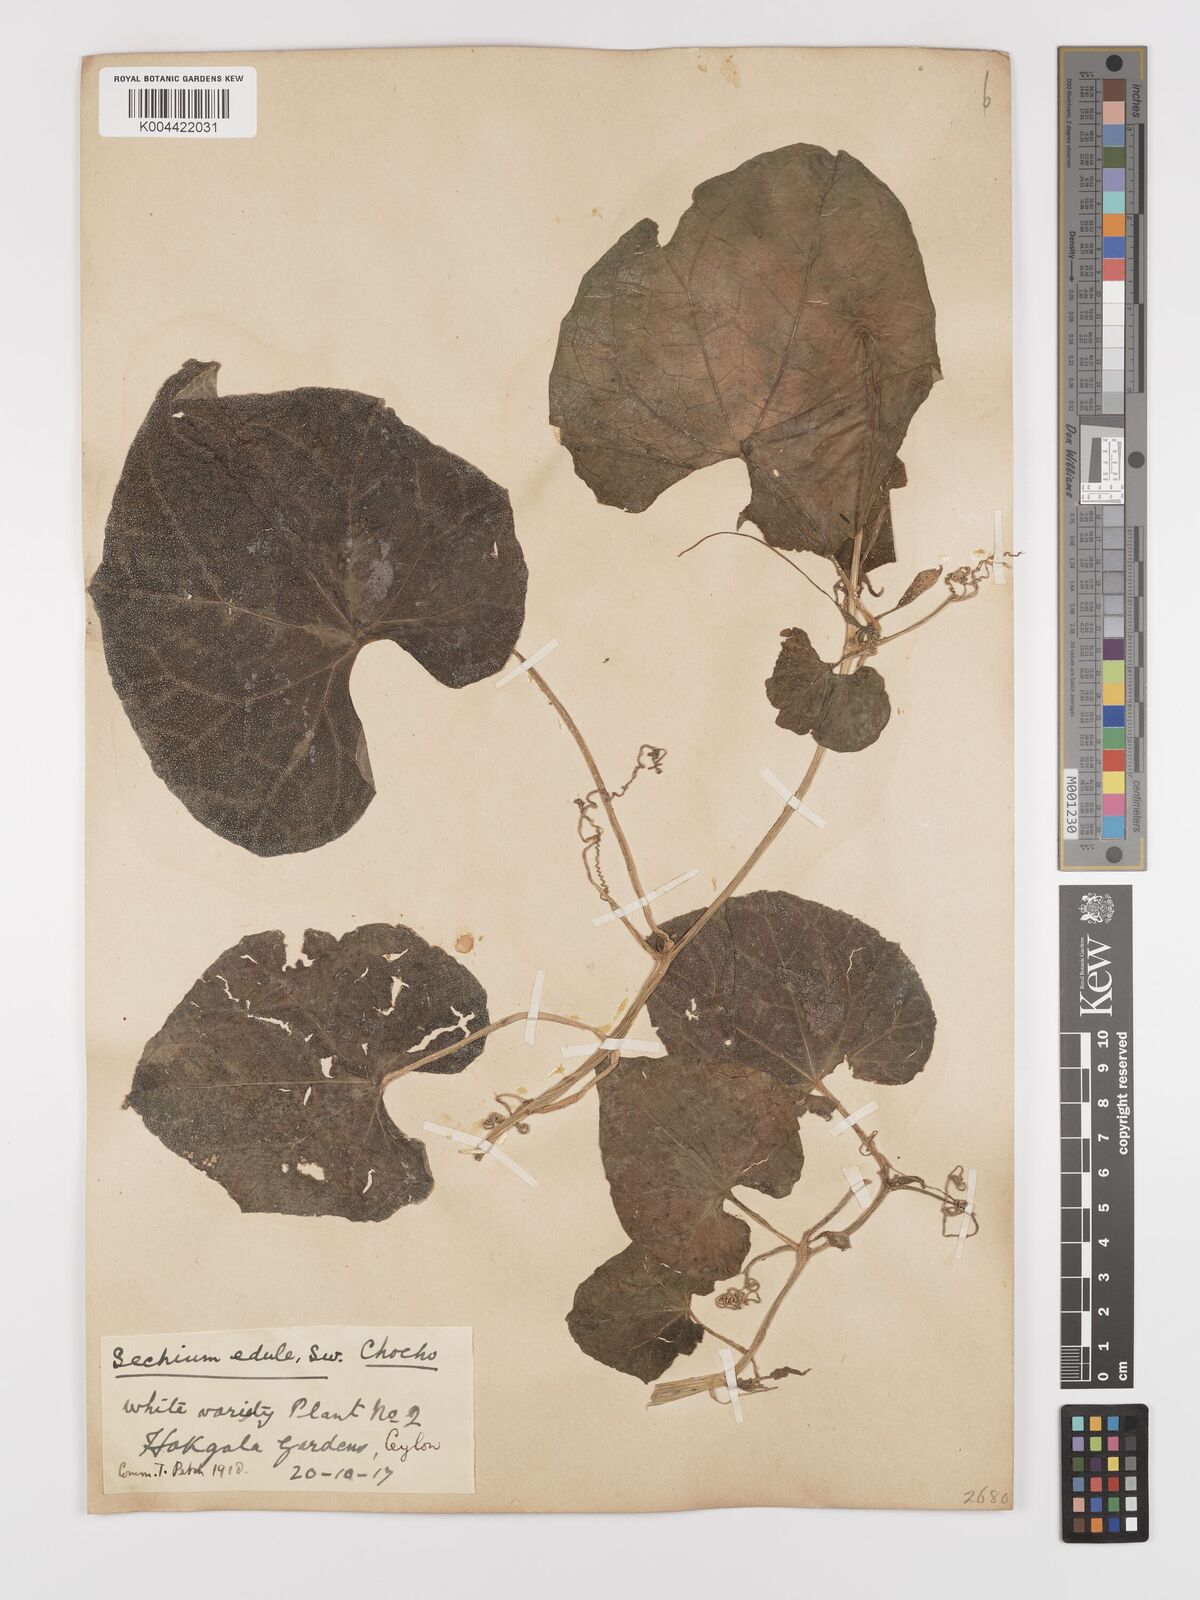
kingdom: Plantae
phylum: Tracheophyta
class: Magnoliopsida
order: Cucurbitales
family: Cucurbitaceae
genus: Sechium
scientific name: Sechium edule
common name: Chayote
